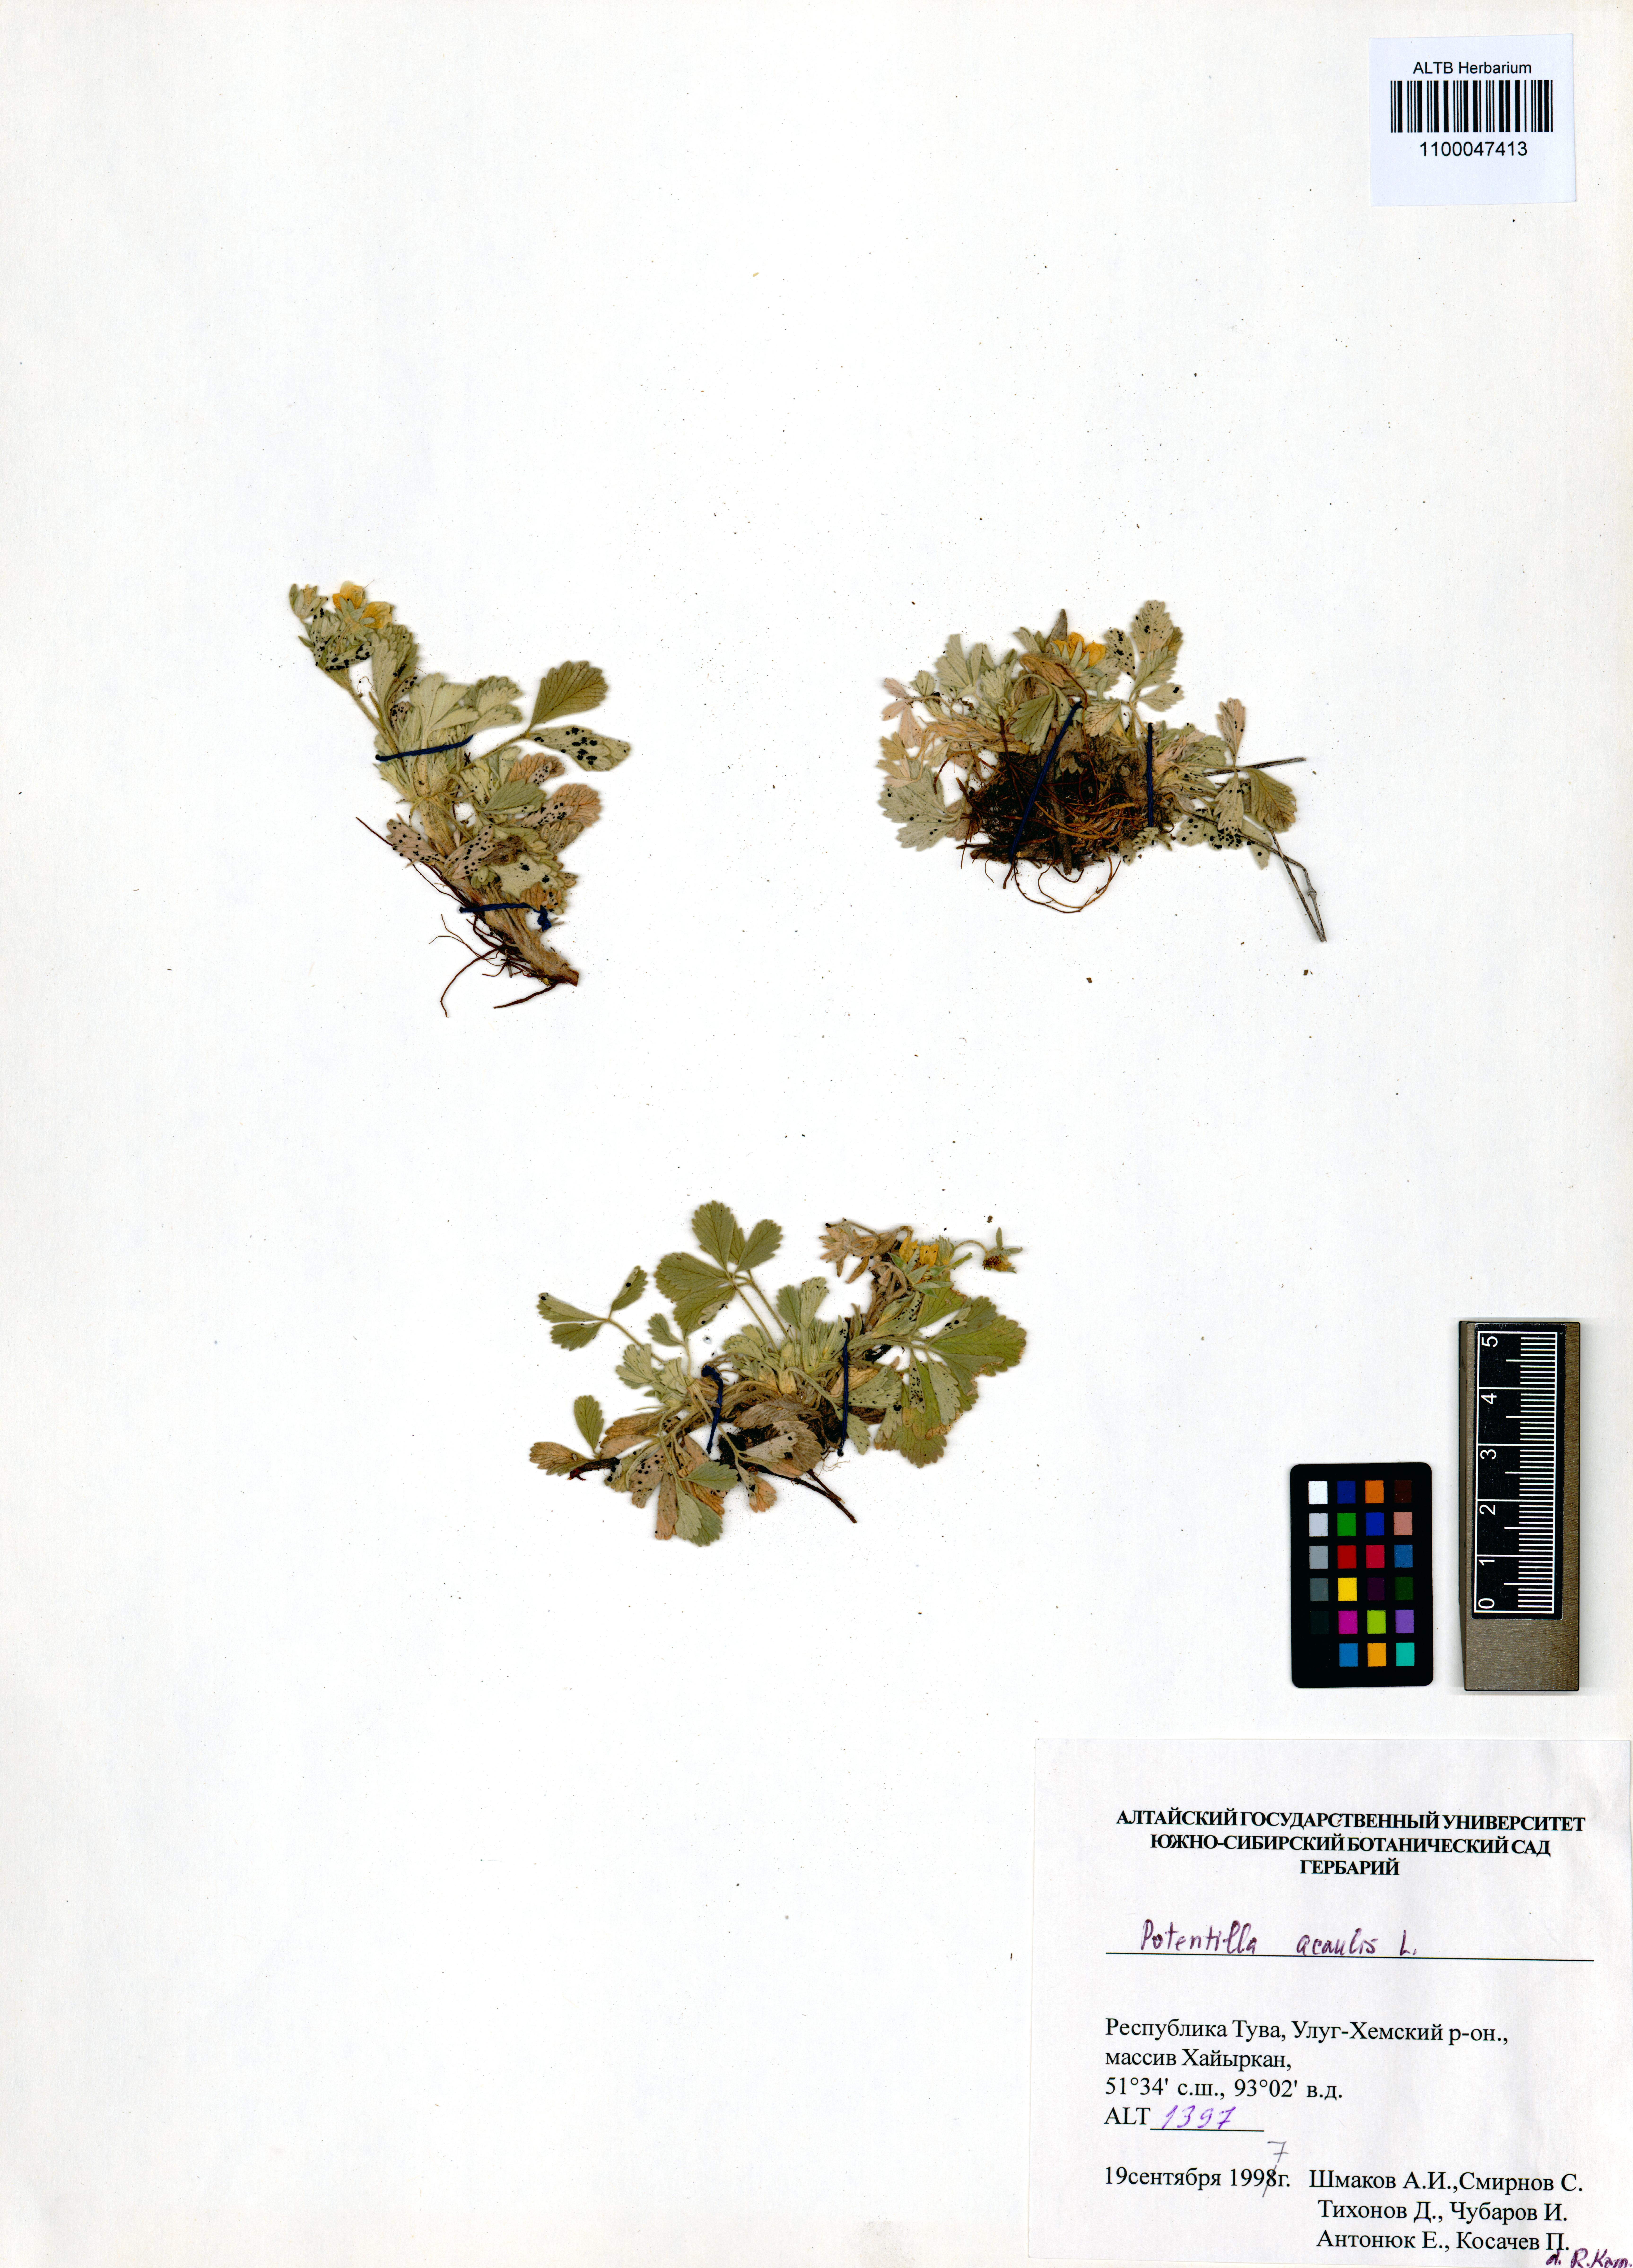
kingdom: Plantae
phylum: Tracheophyta
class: Magnoliopsida
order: Rosales
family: Rosaceae
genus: Potentilla
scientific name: Potentilla acaulis
